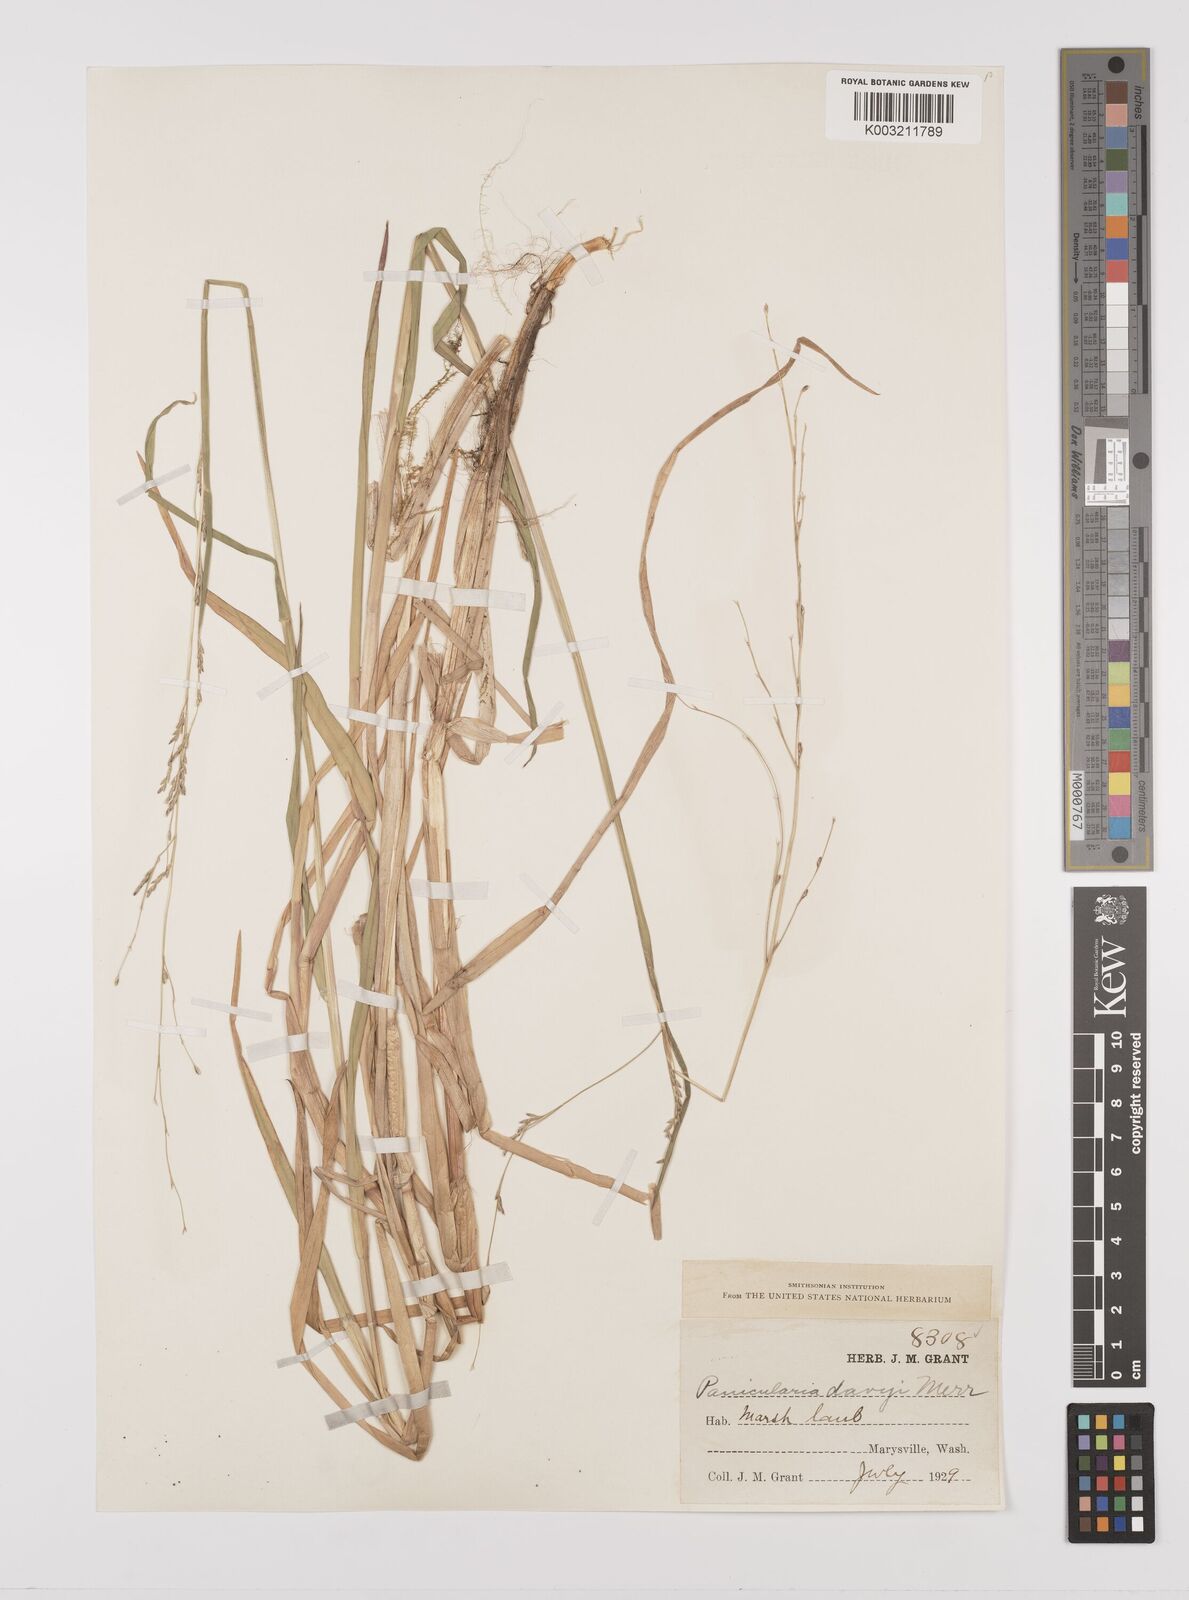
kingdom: Plantae
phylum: Tracheophyta
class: Liliopsida
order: Poales
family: Poaceae
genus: Glyceria
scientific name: Glyceria leptostachya
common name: Davy's mannagrass
